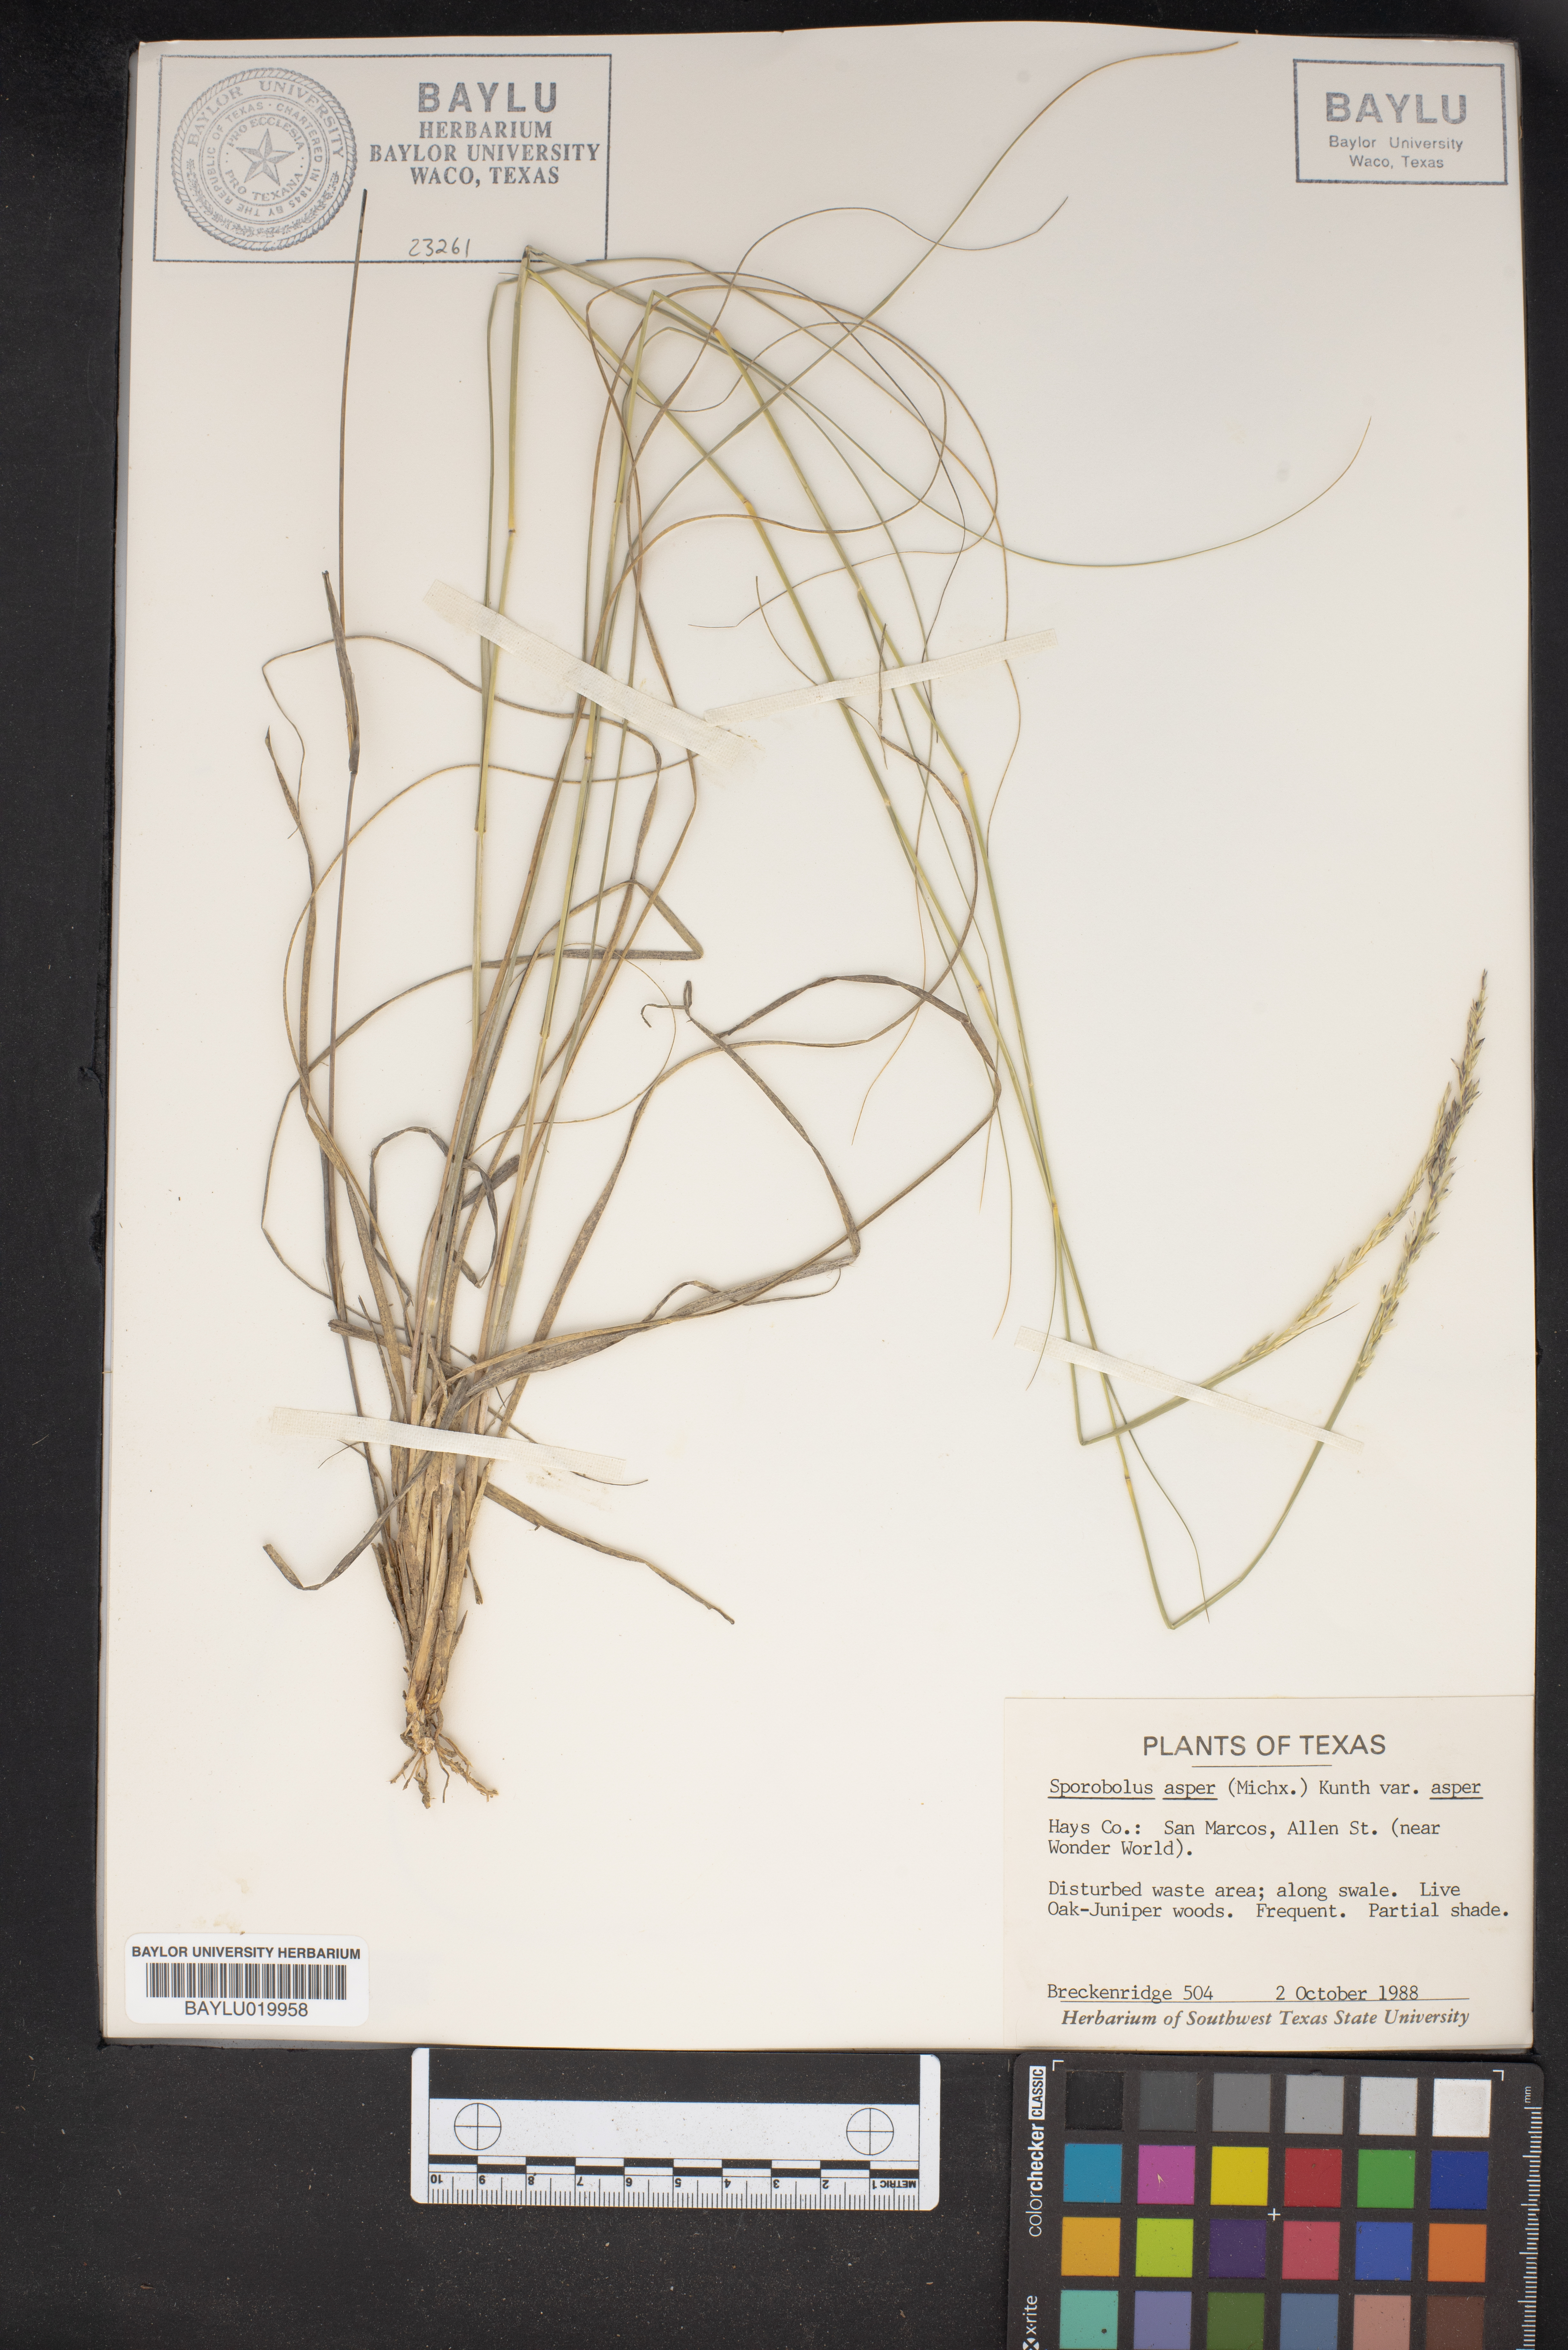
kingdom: Plantae
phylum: Tracheophyta
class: Liliopsida
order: Poales
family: Poaceae
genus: Sporobolus
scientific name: Sporobolus compositus
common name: Rough dropseed
